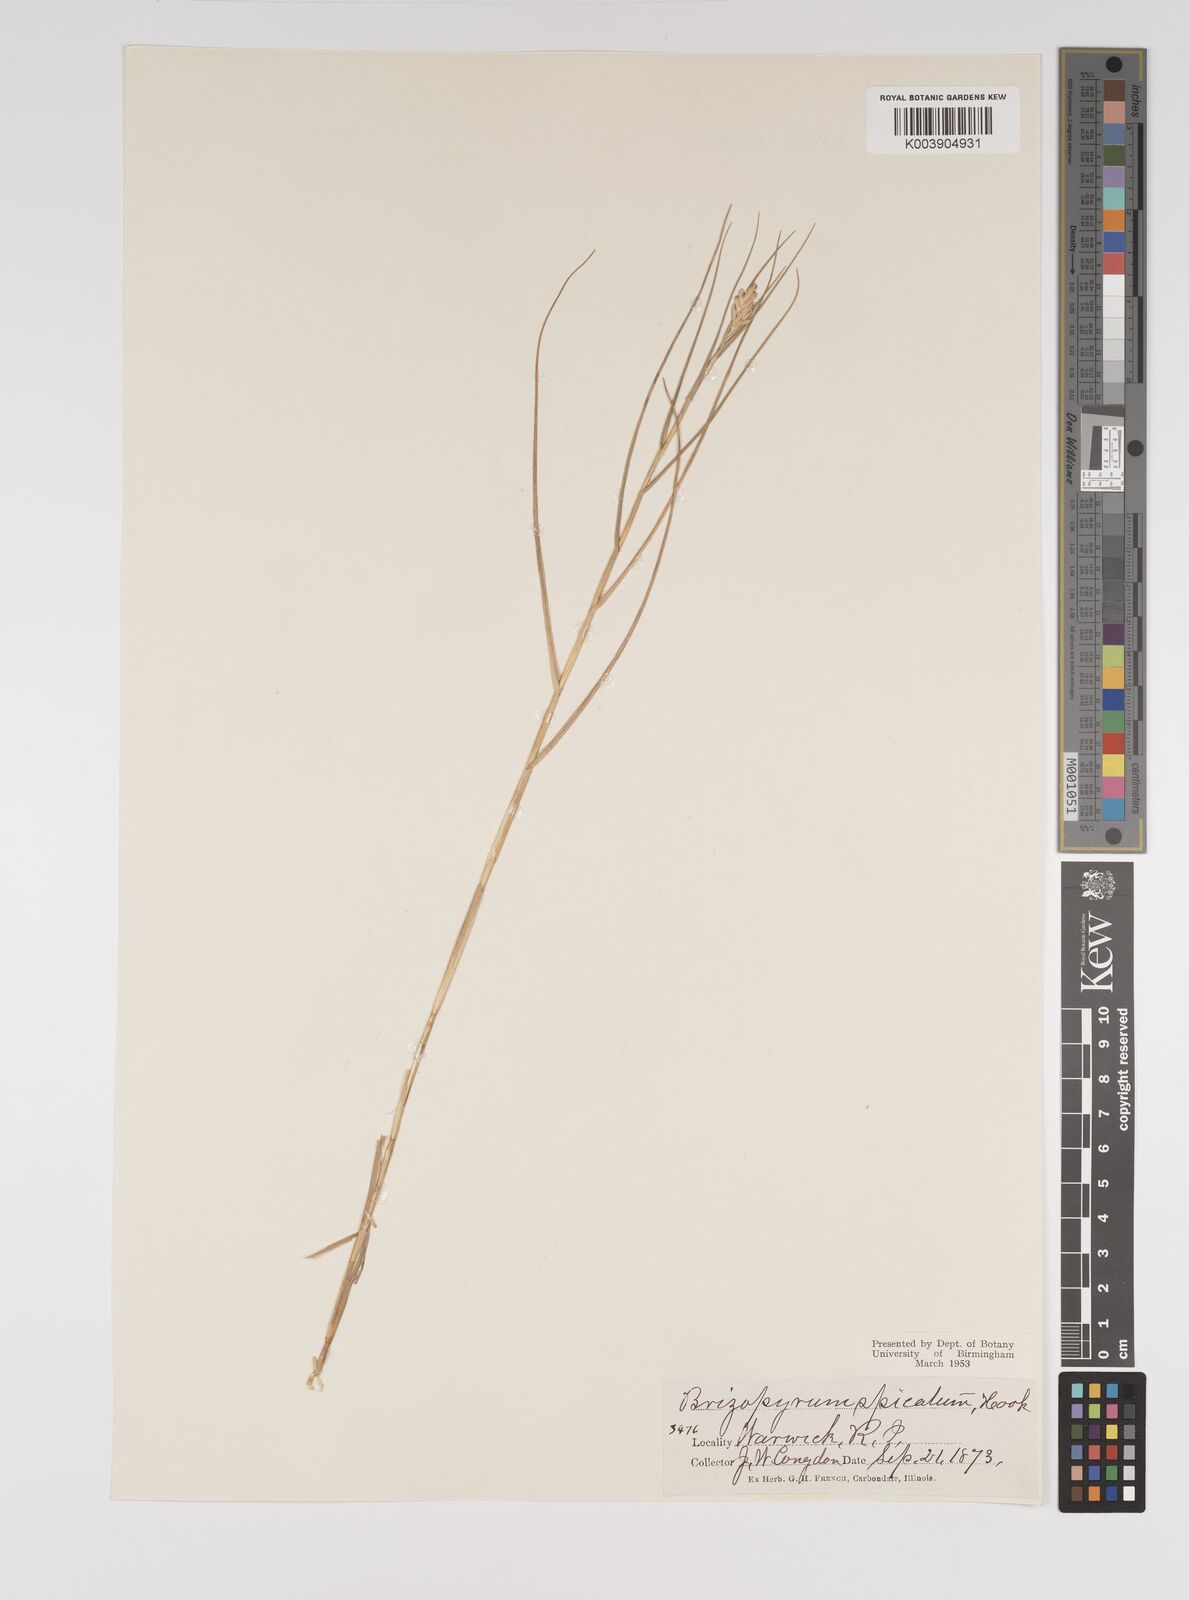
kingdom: Plantae
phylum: Tracheophyta
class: Liliopsida
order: Poales
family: Poaceae
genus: Distichlis
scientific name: Distichlis spicata
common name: Saltgrass
